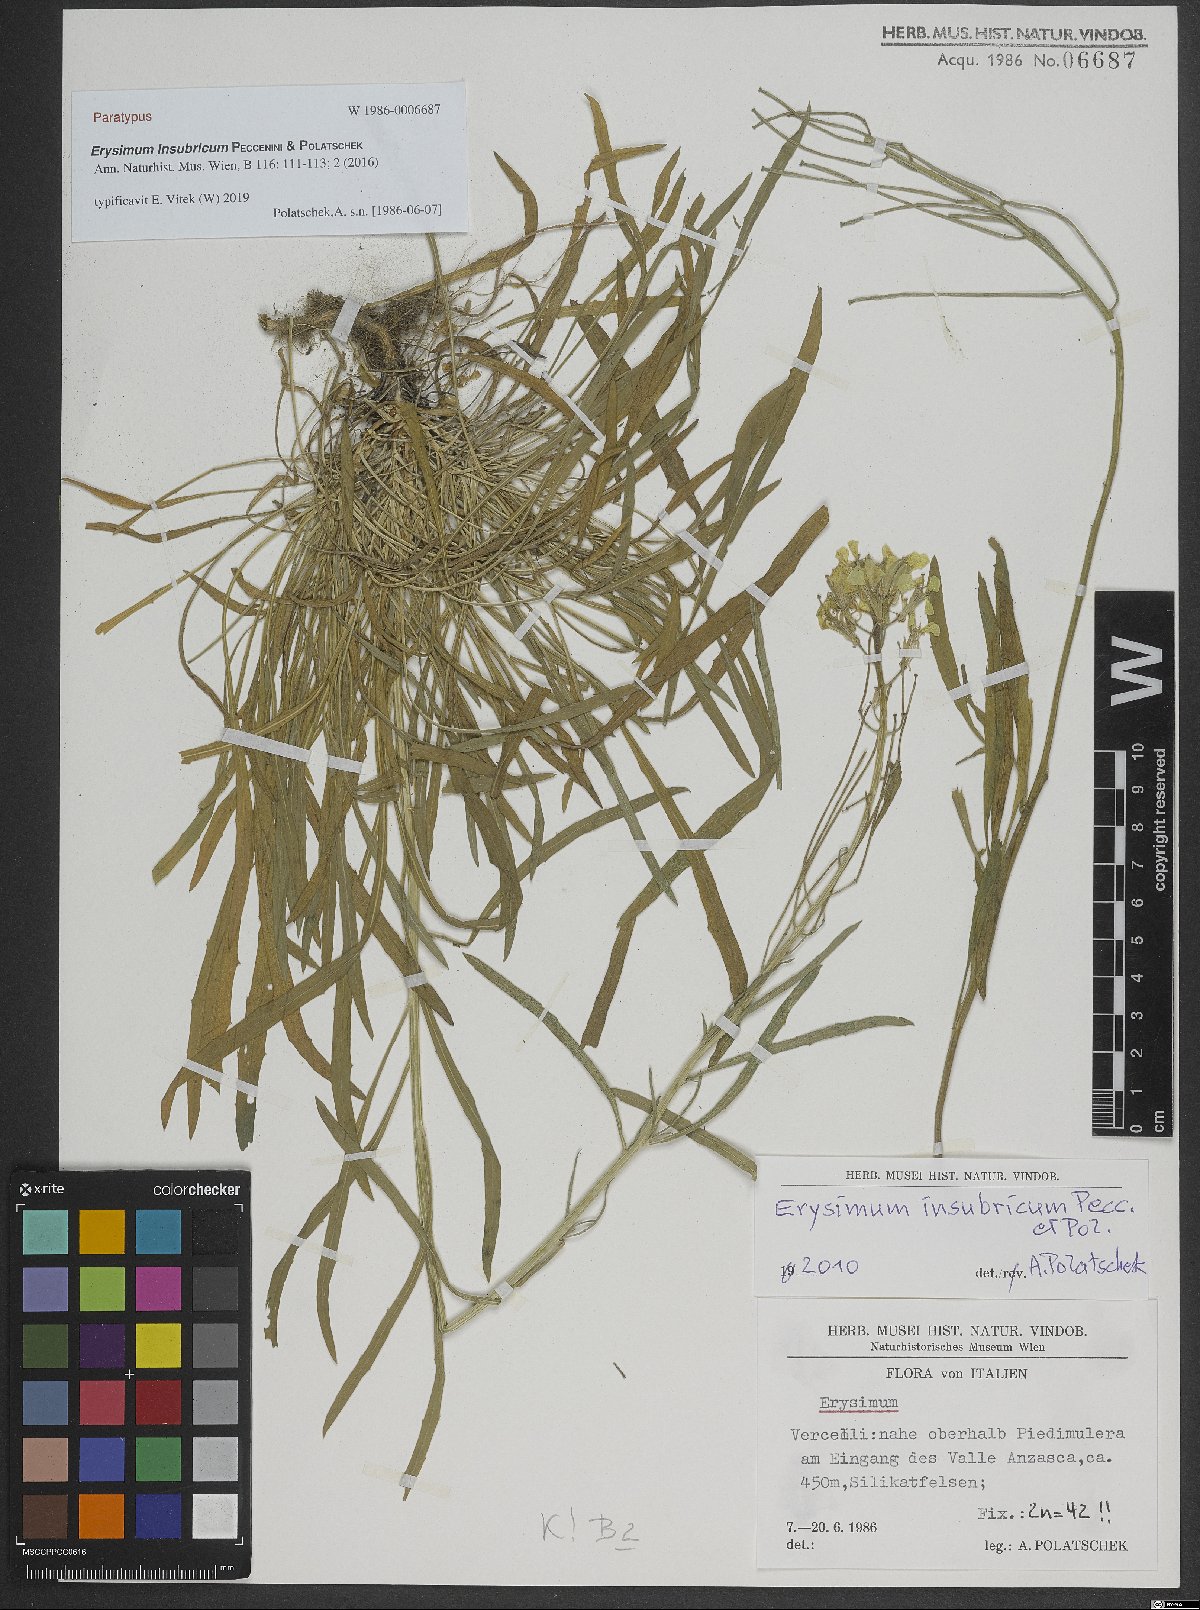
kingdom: Plantae
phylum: Tracheophyta
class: Magnoliopsida
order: Brassicales
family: Brassicaceae
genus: Erysimum
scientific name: Erysimum insubricum
